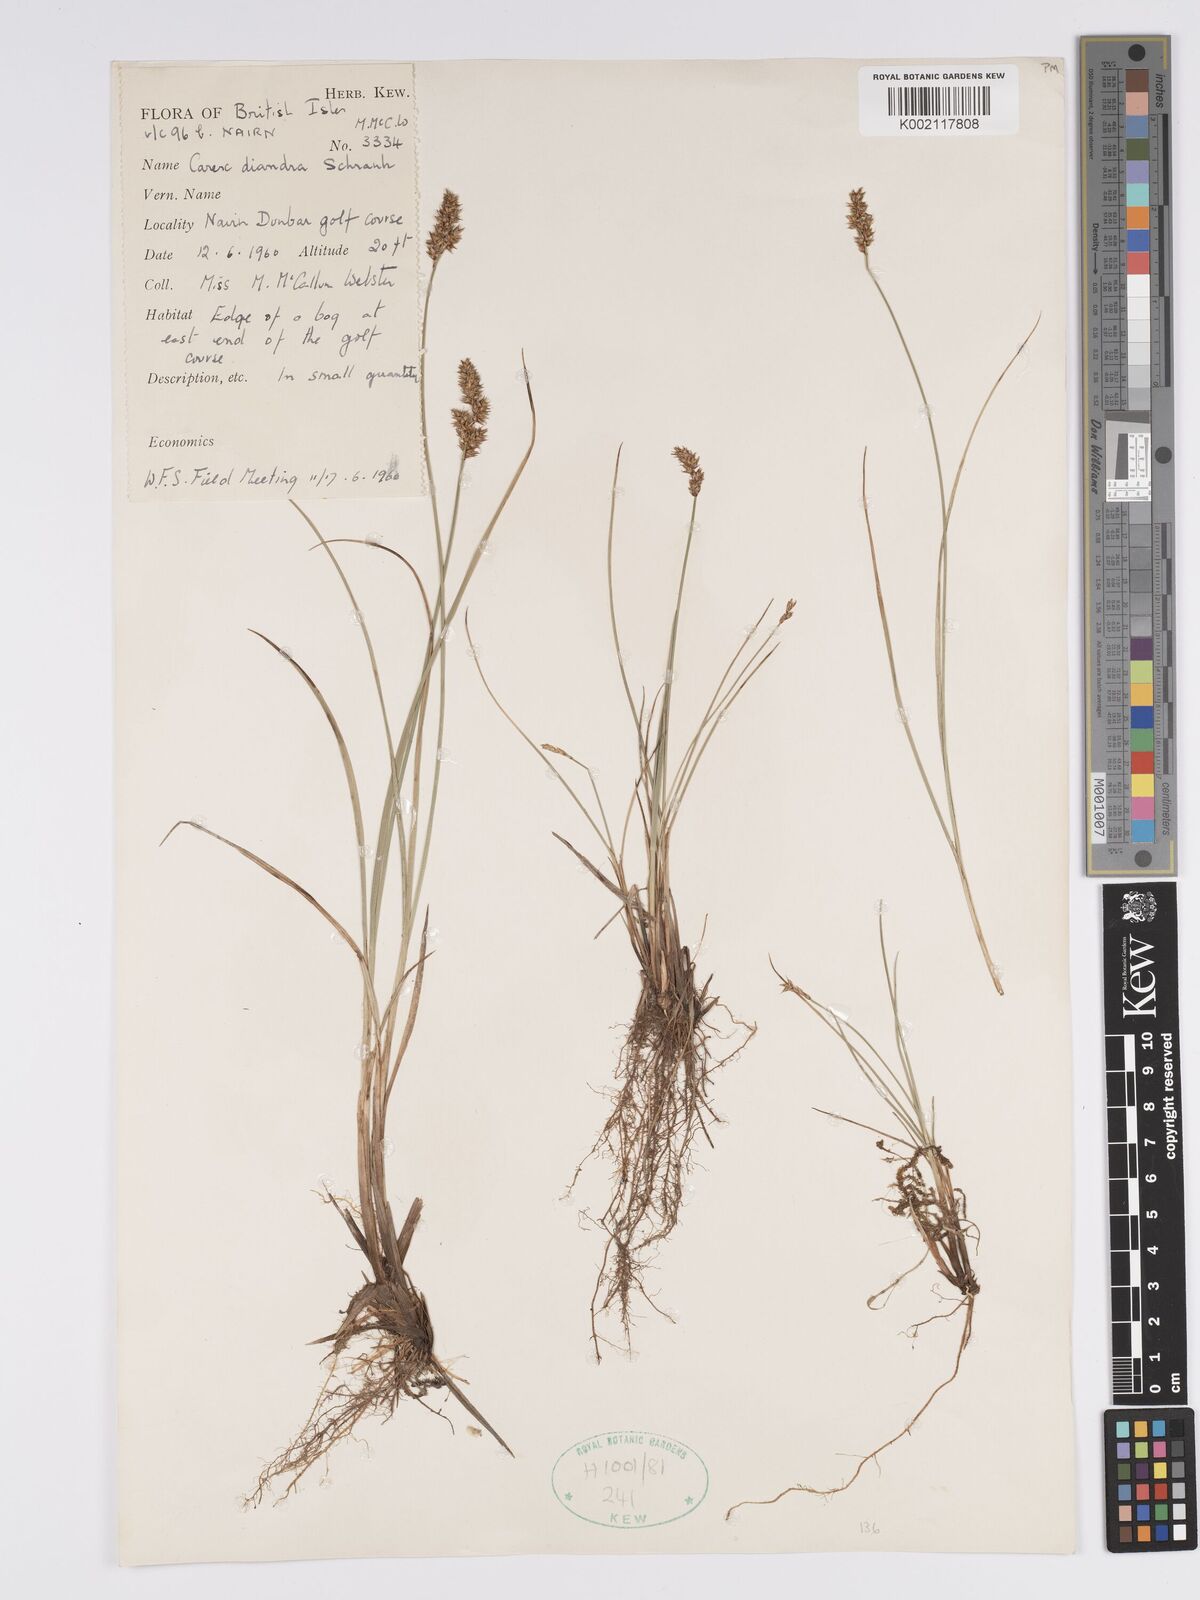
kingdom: Plantae
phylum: Tracheophyta
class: Liliopsida
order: Poales
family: Cyperaceae
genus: Carex
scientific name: Carex diandra
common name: Lesser tussock-sedge
